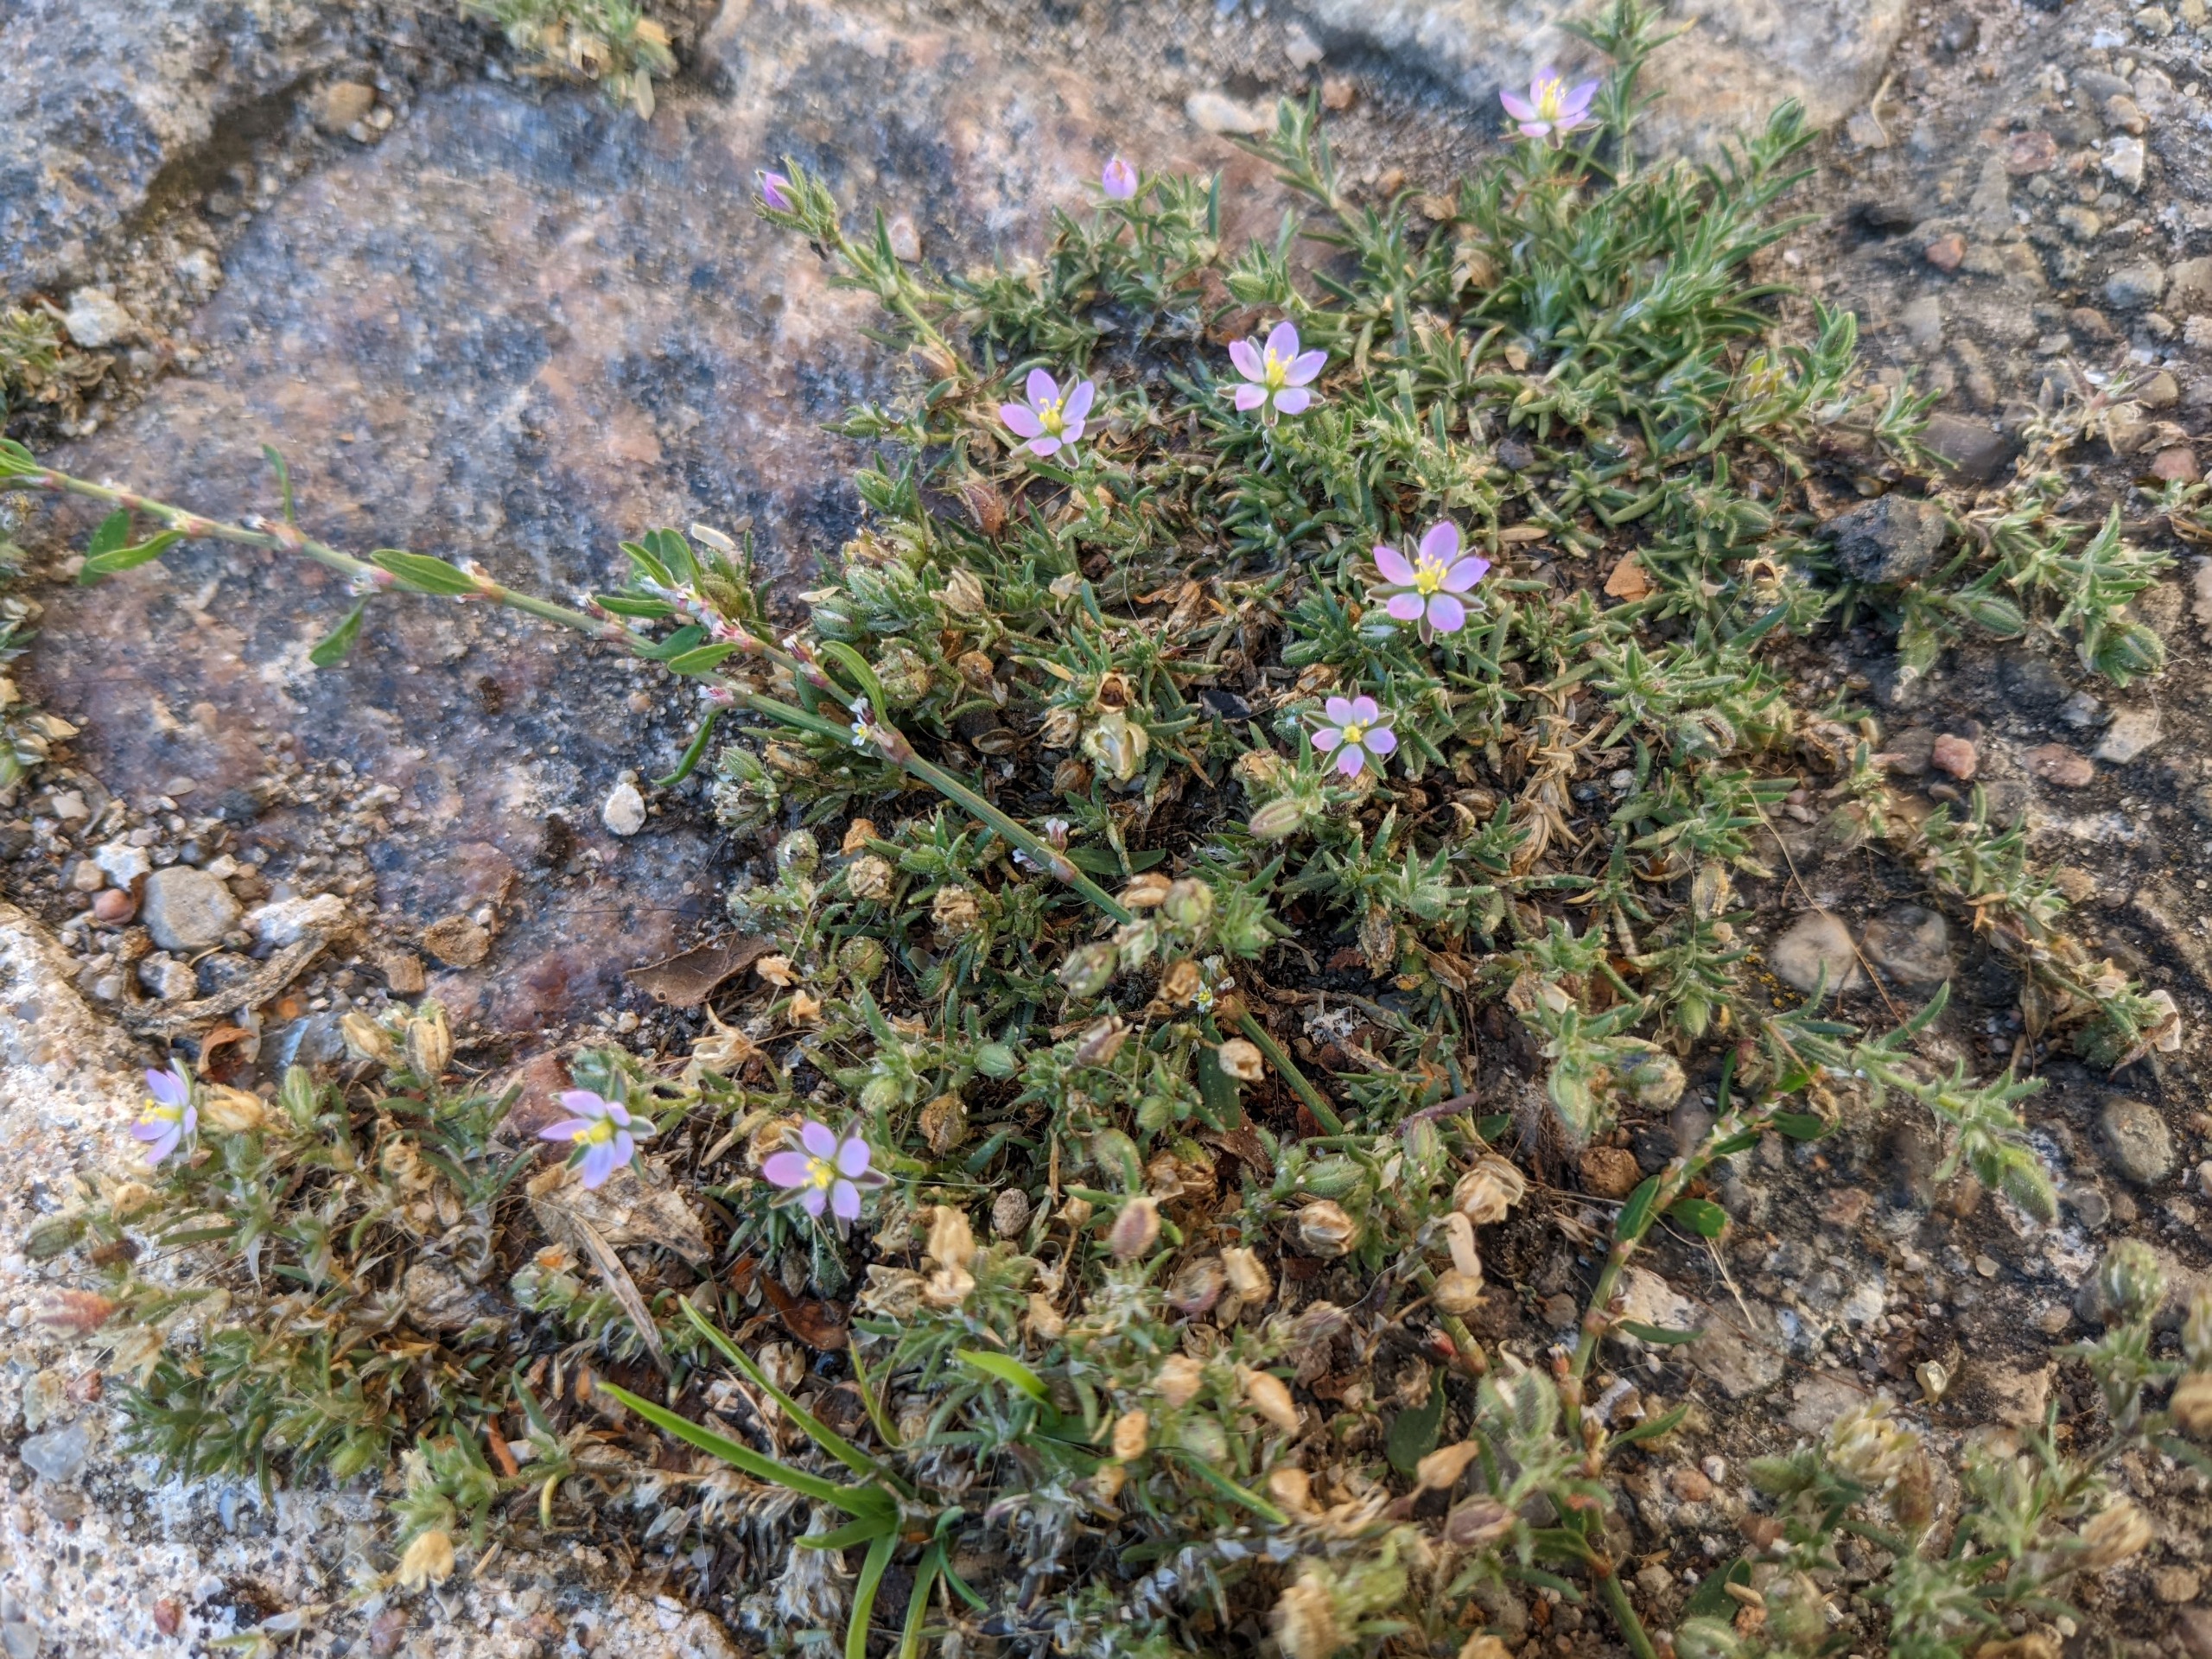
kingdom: Plantae
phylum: Tracheophyta
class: Magnoliopsida
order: Caryophyllales
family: Caryophyllaceae
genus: Spergularia
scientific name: Spergularia rubra
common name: Mark-hindeknæ
